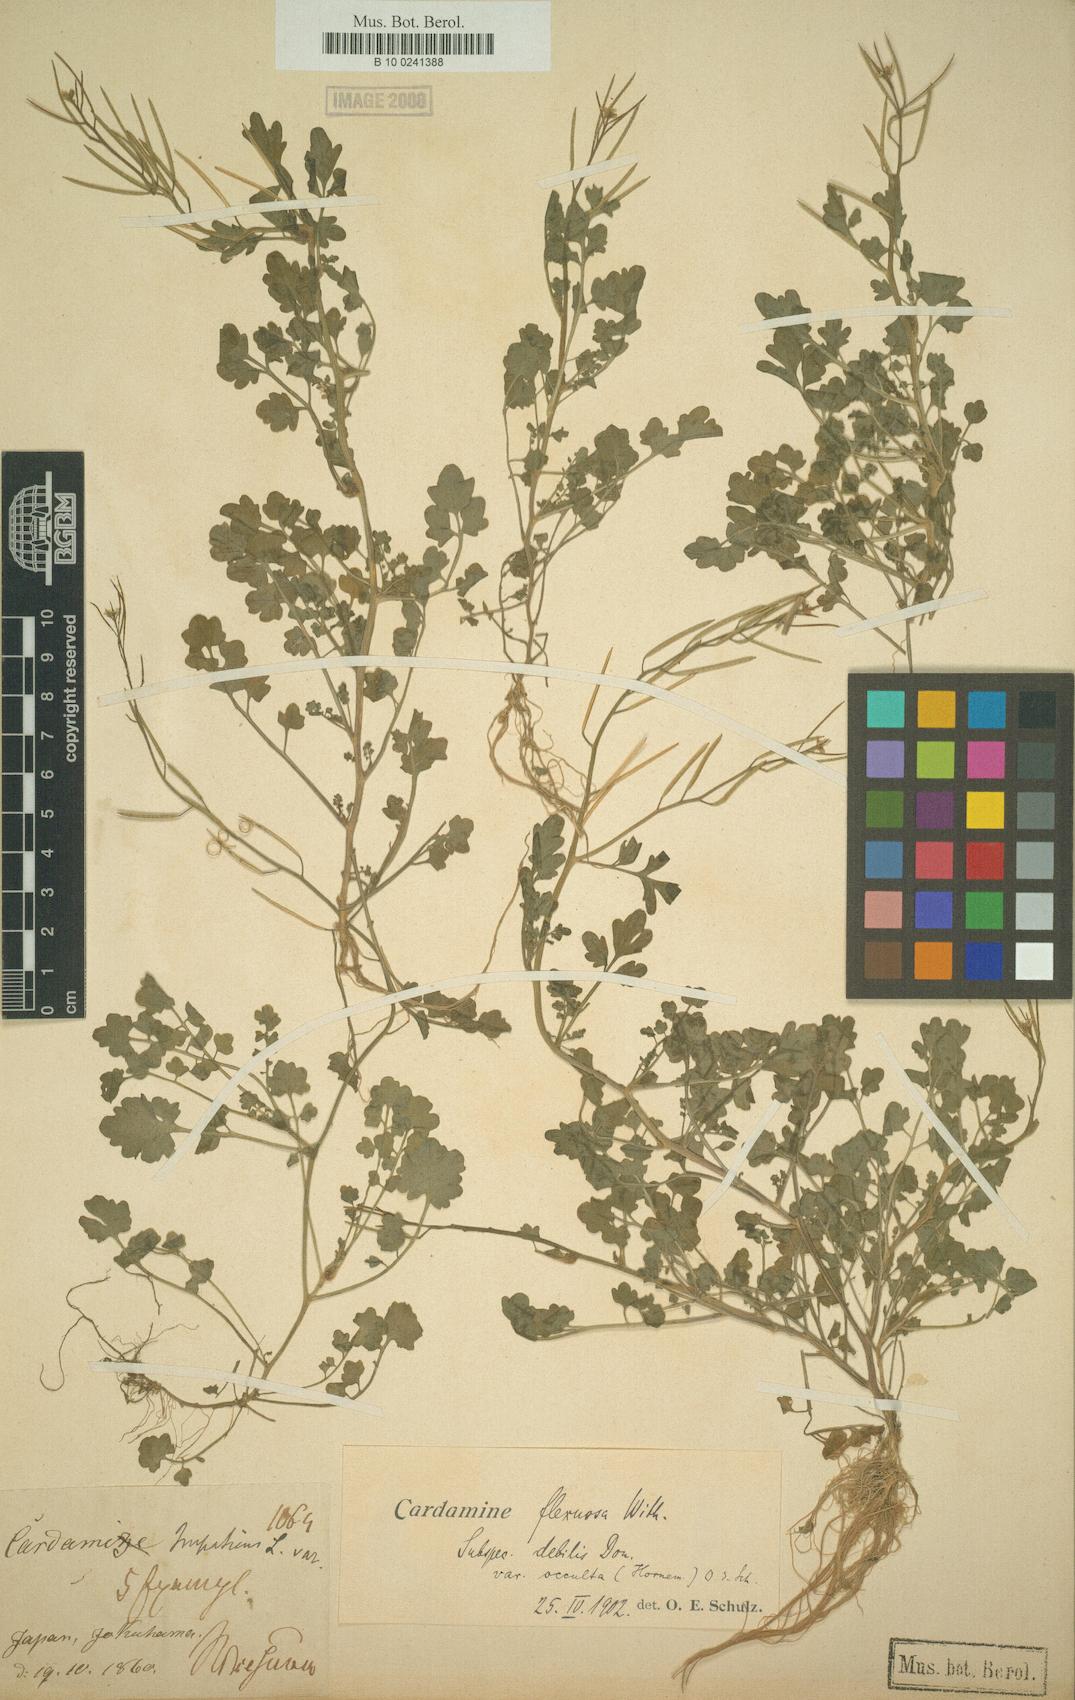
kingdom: Plantae
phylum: Tracheophyta
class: Magnoliopsida
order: Brassicales
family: Brassicaceae
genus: Cardamine
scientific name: Cardamine occulta
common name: Asian wavy bittercress
